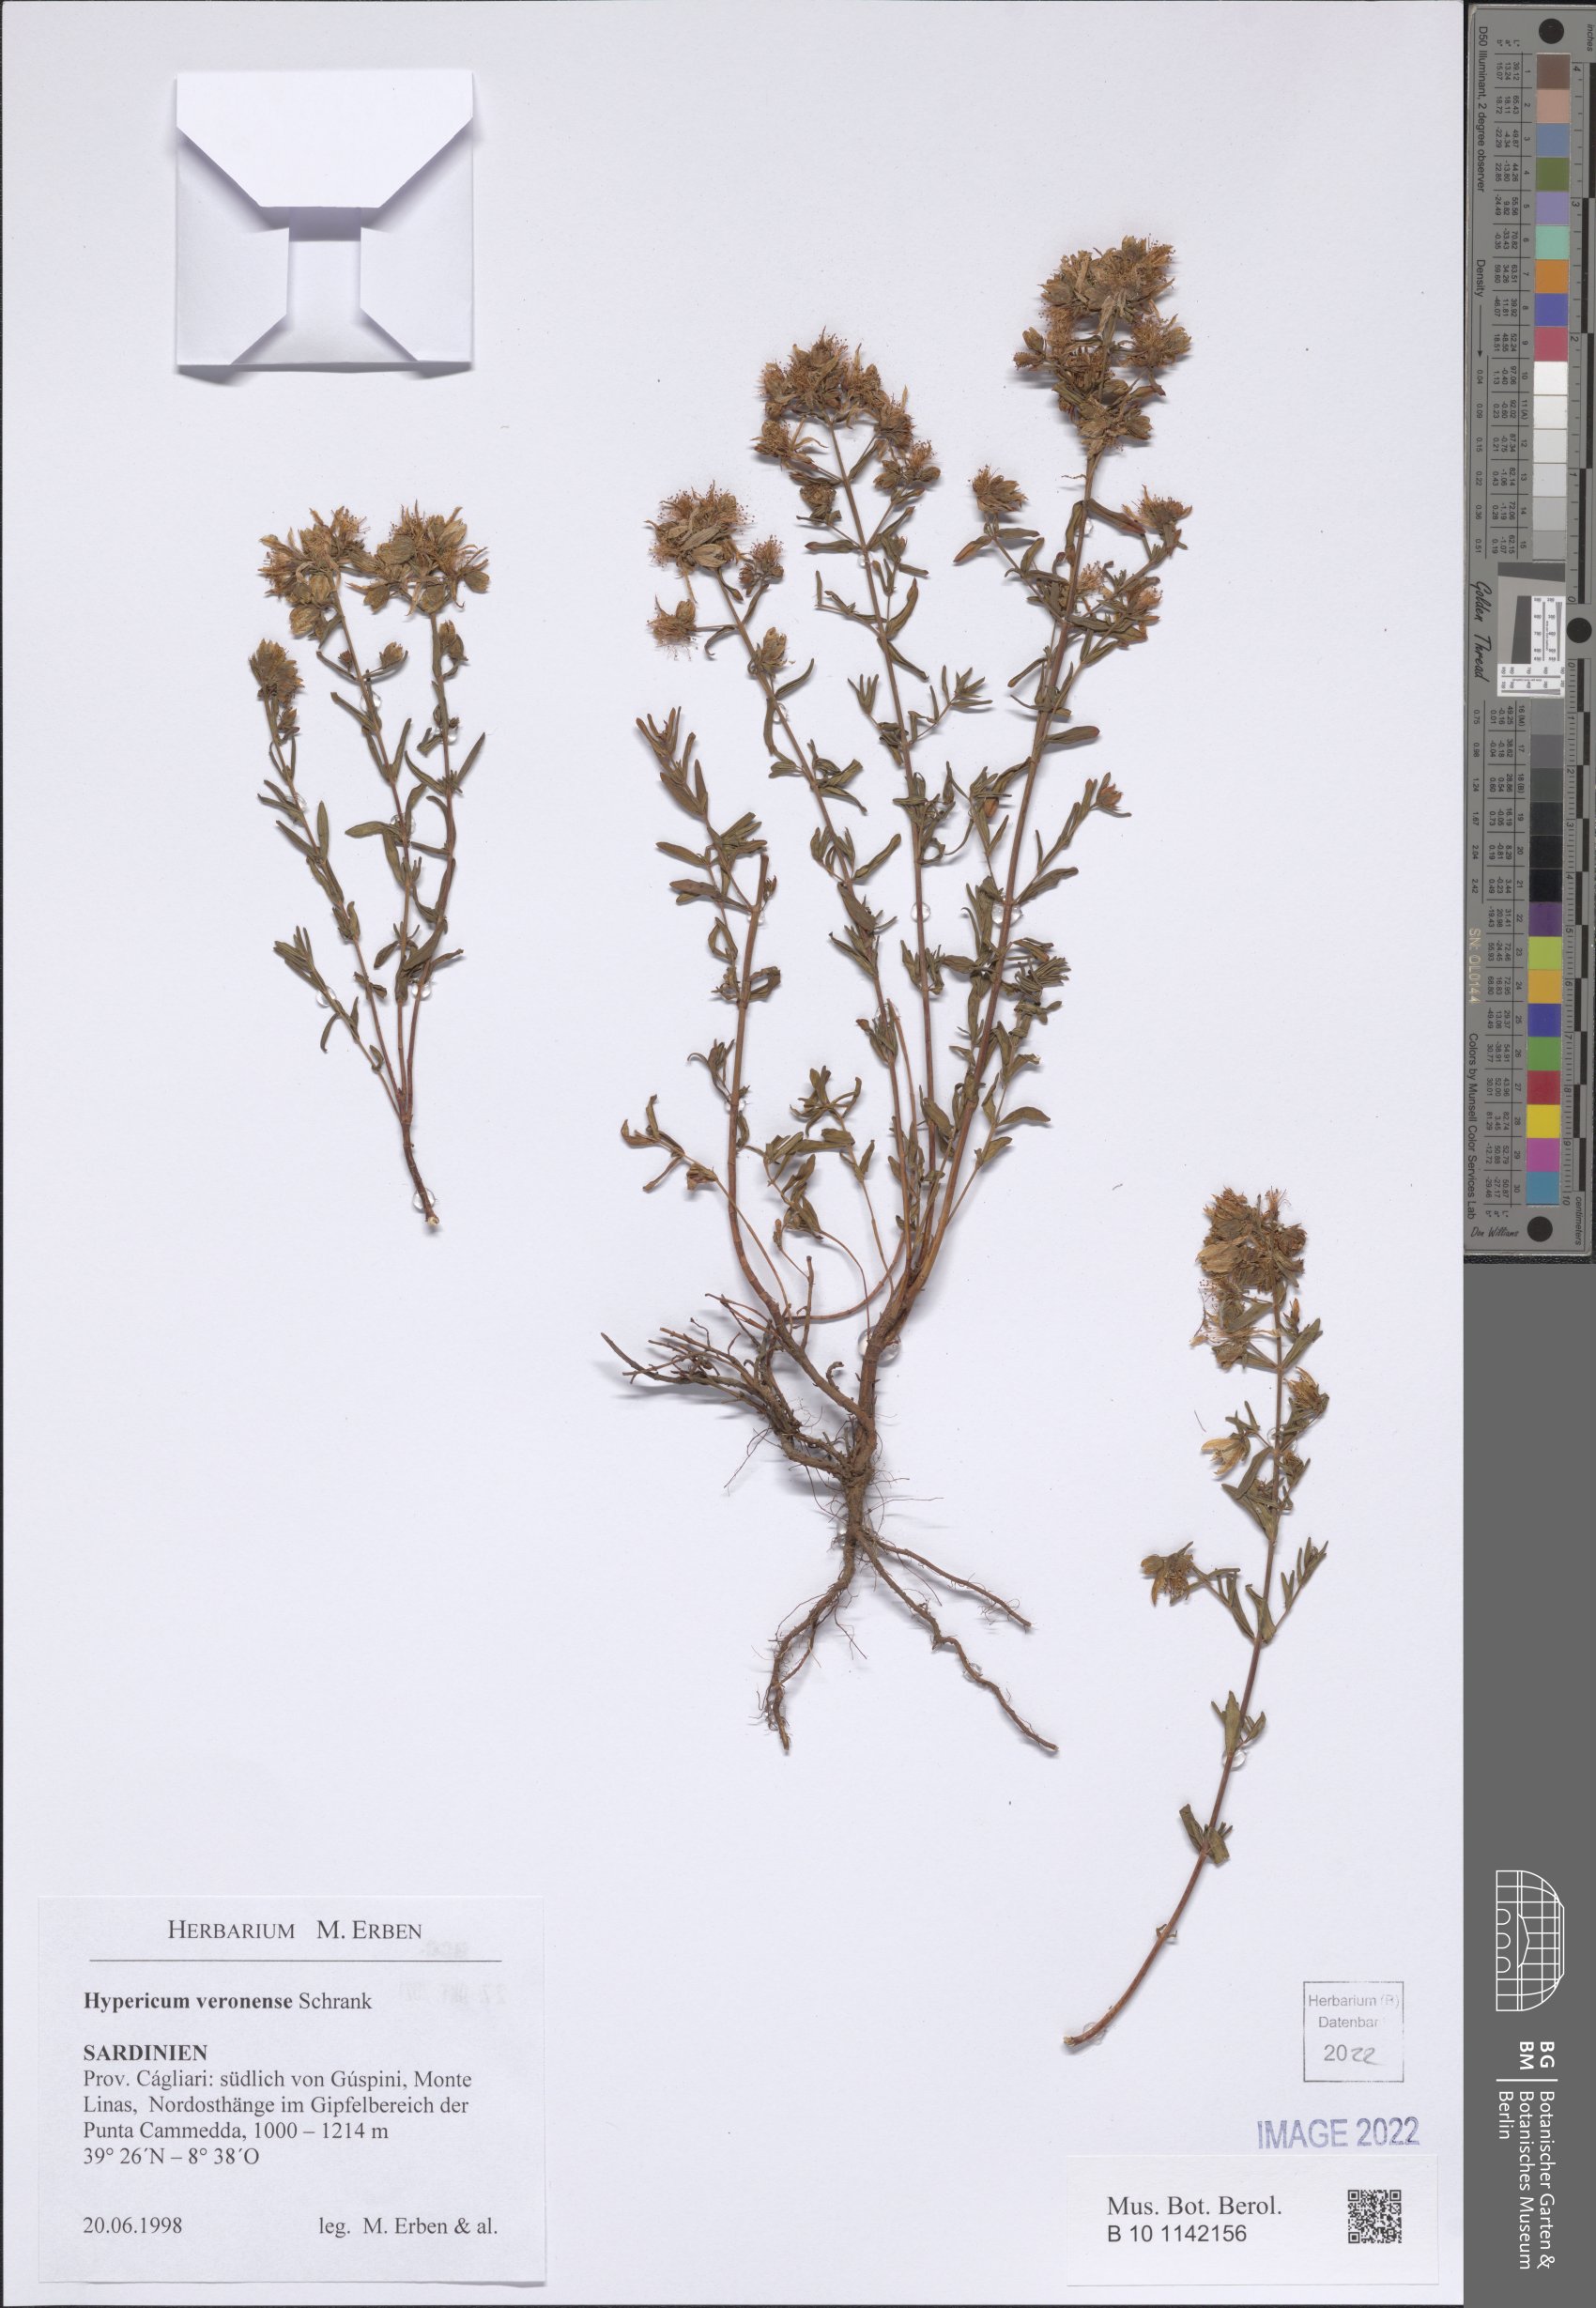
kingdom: Plantae
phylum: Tracheophyta
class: Magnoliopsida
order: Malpighiales
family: Hypericaceae
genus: Hypericum
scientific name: Hypericum veronense
